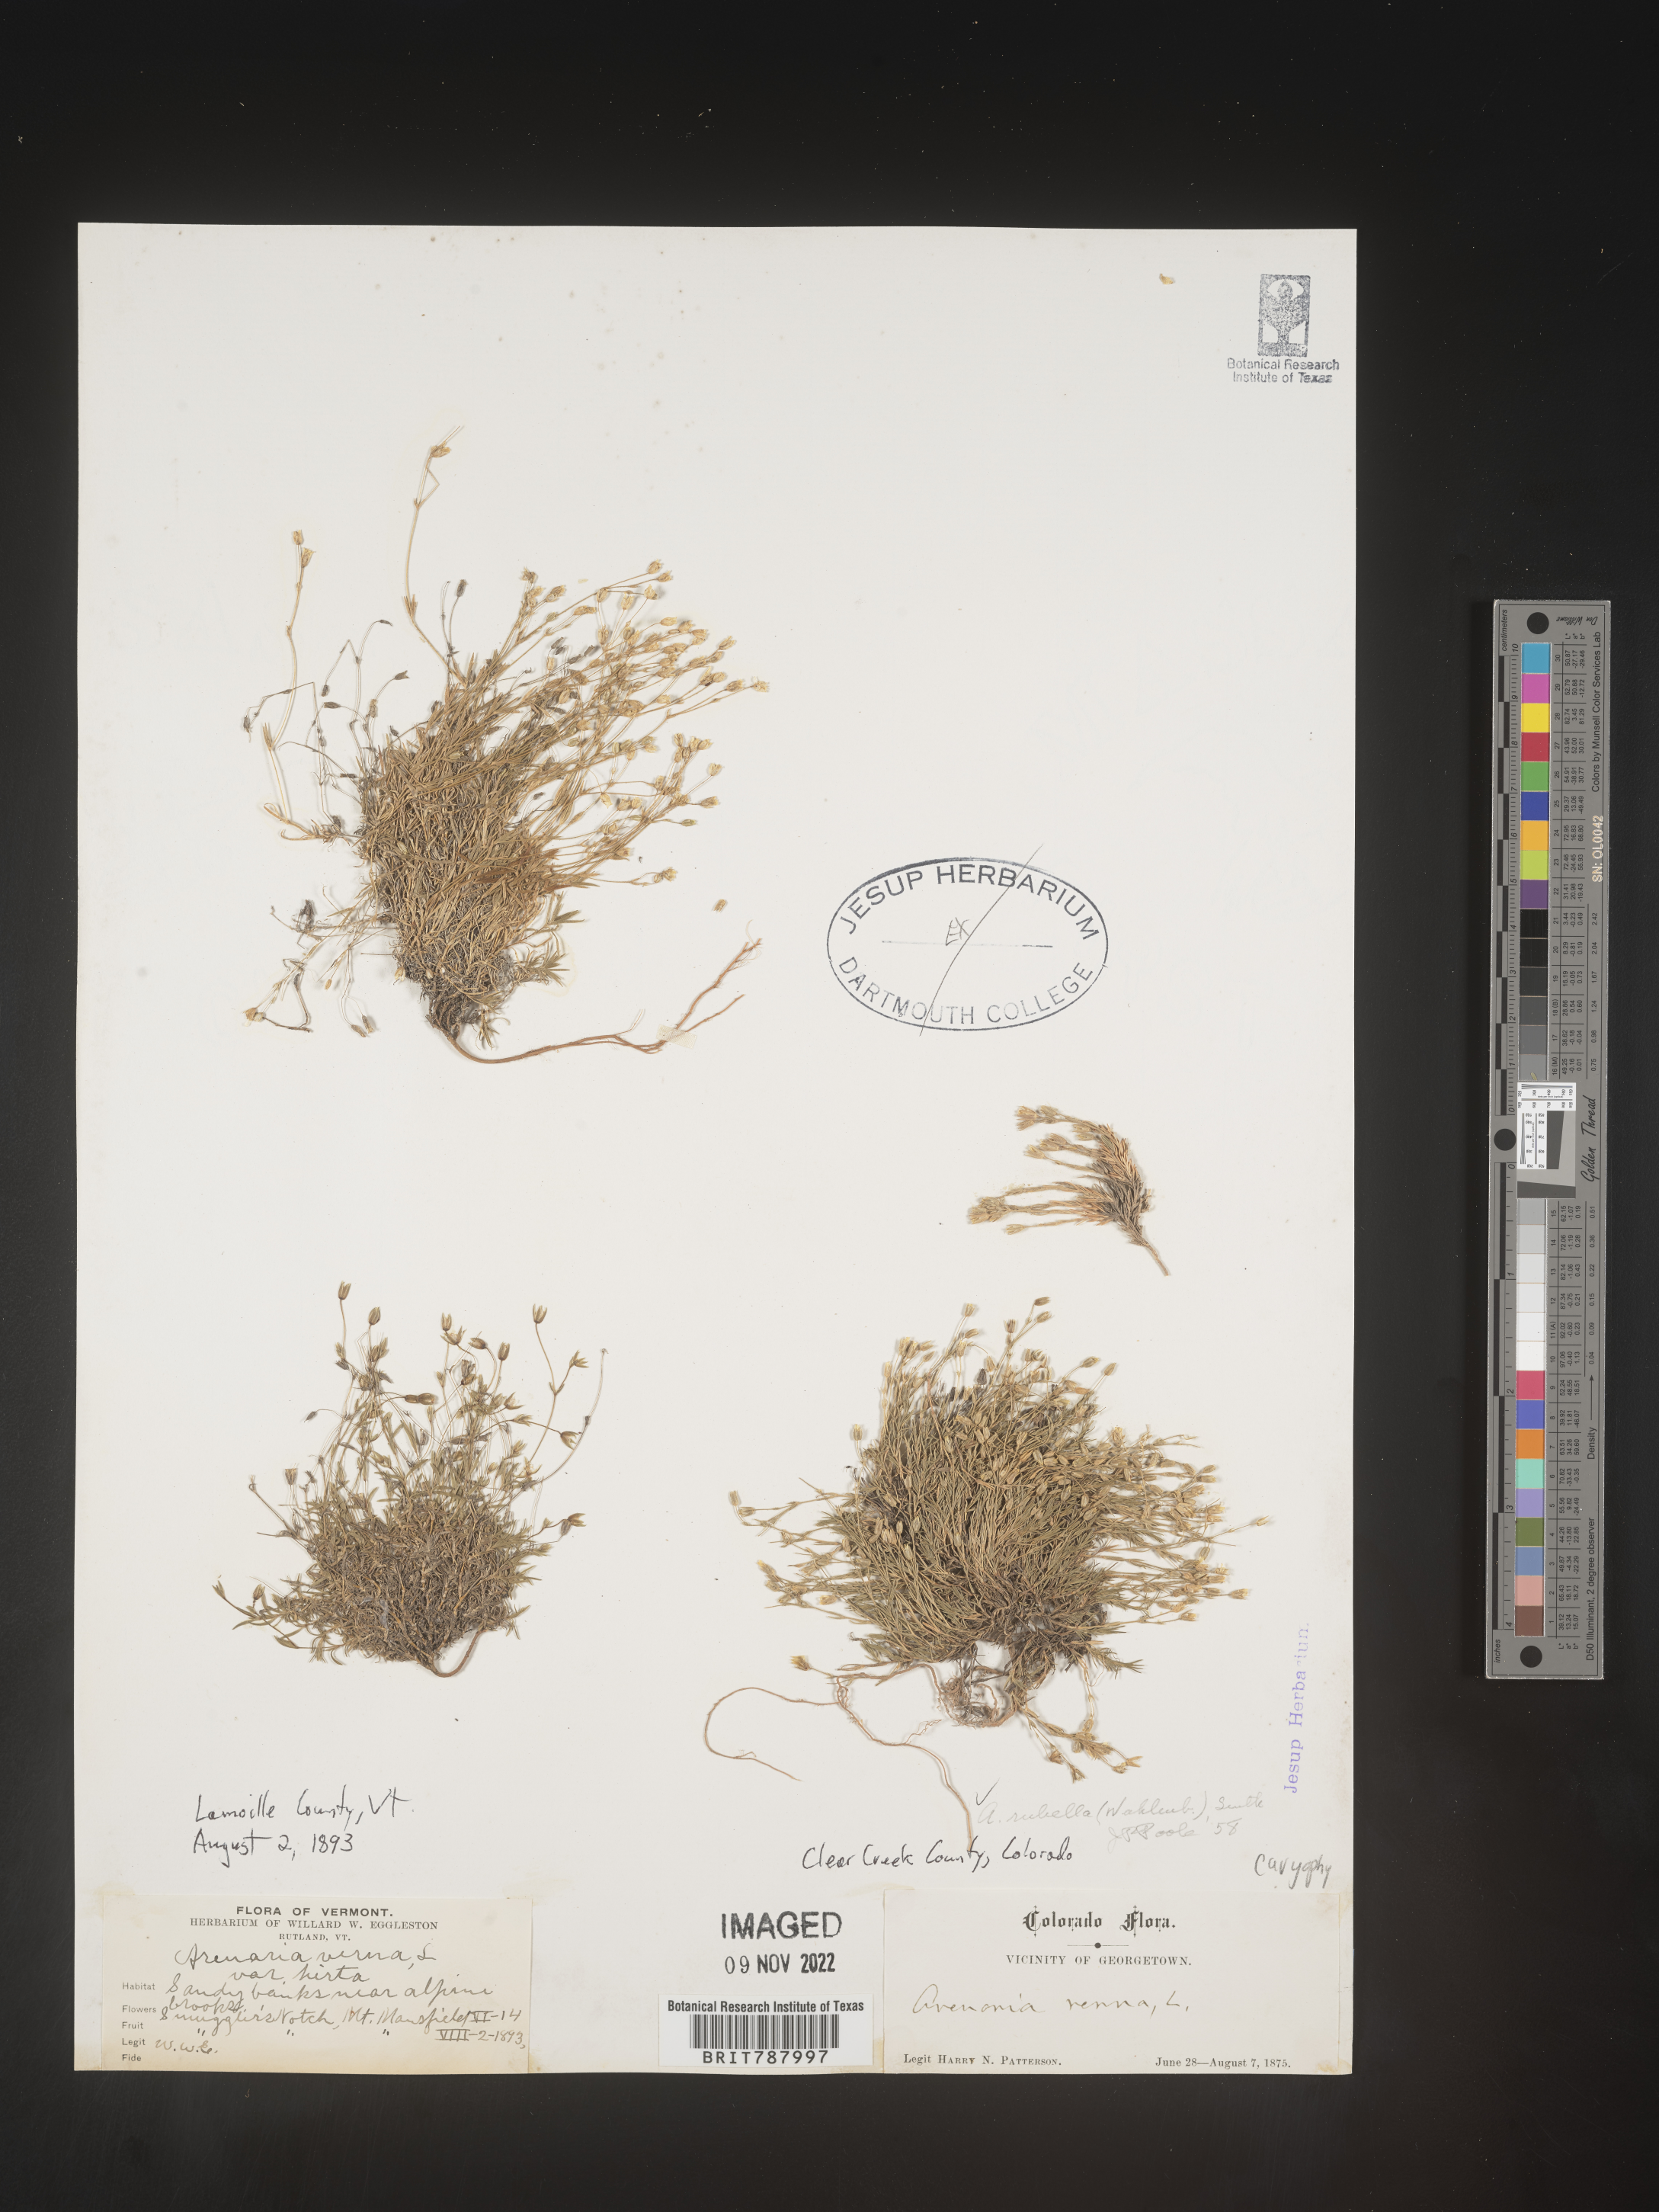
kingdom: Plantae
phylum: Tracheophyta
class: Magnoliopsida
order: Caryophyllales
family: Caryophyllaceae
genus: Arenaria
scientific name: Arenaria
